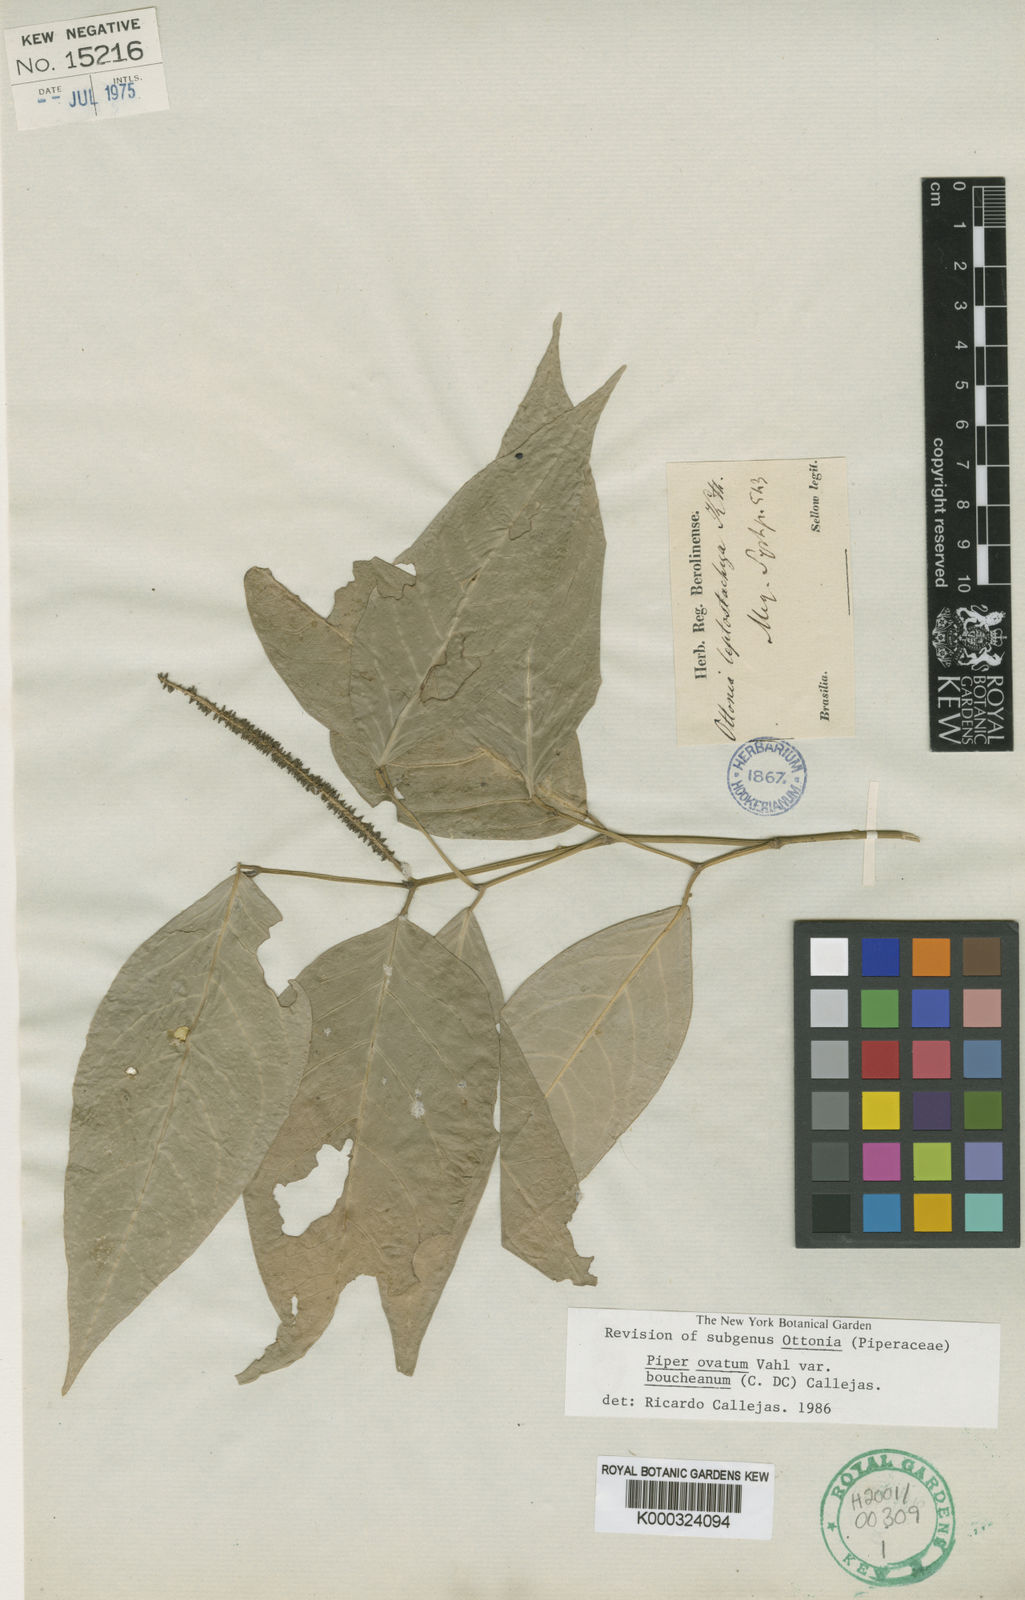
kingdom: Plantae
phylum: Tracheophyta
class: Magnoliopsida
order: Piperales
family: Piperaceae
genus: Piper
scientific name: Piper ovatum
